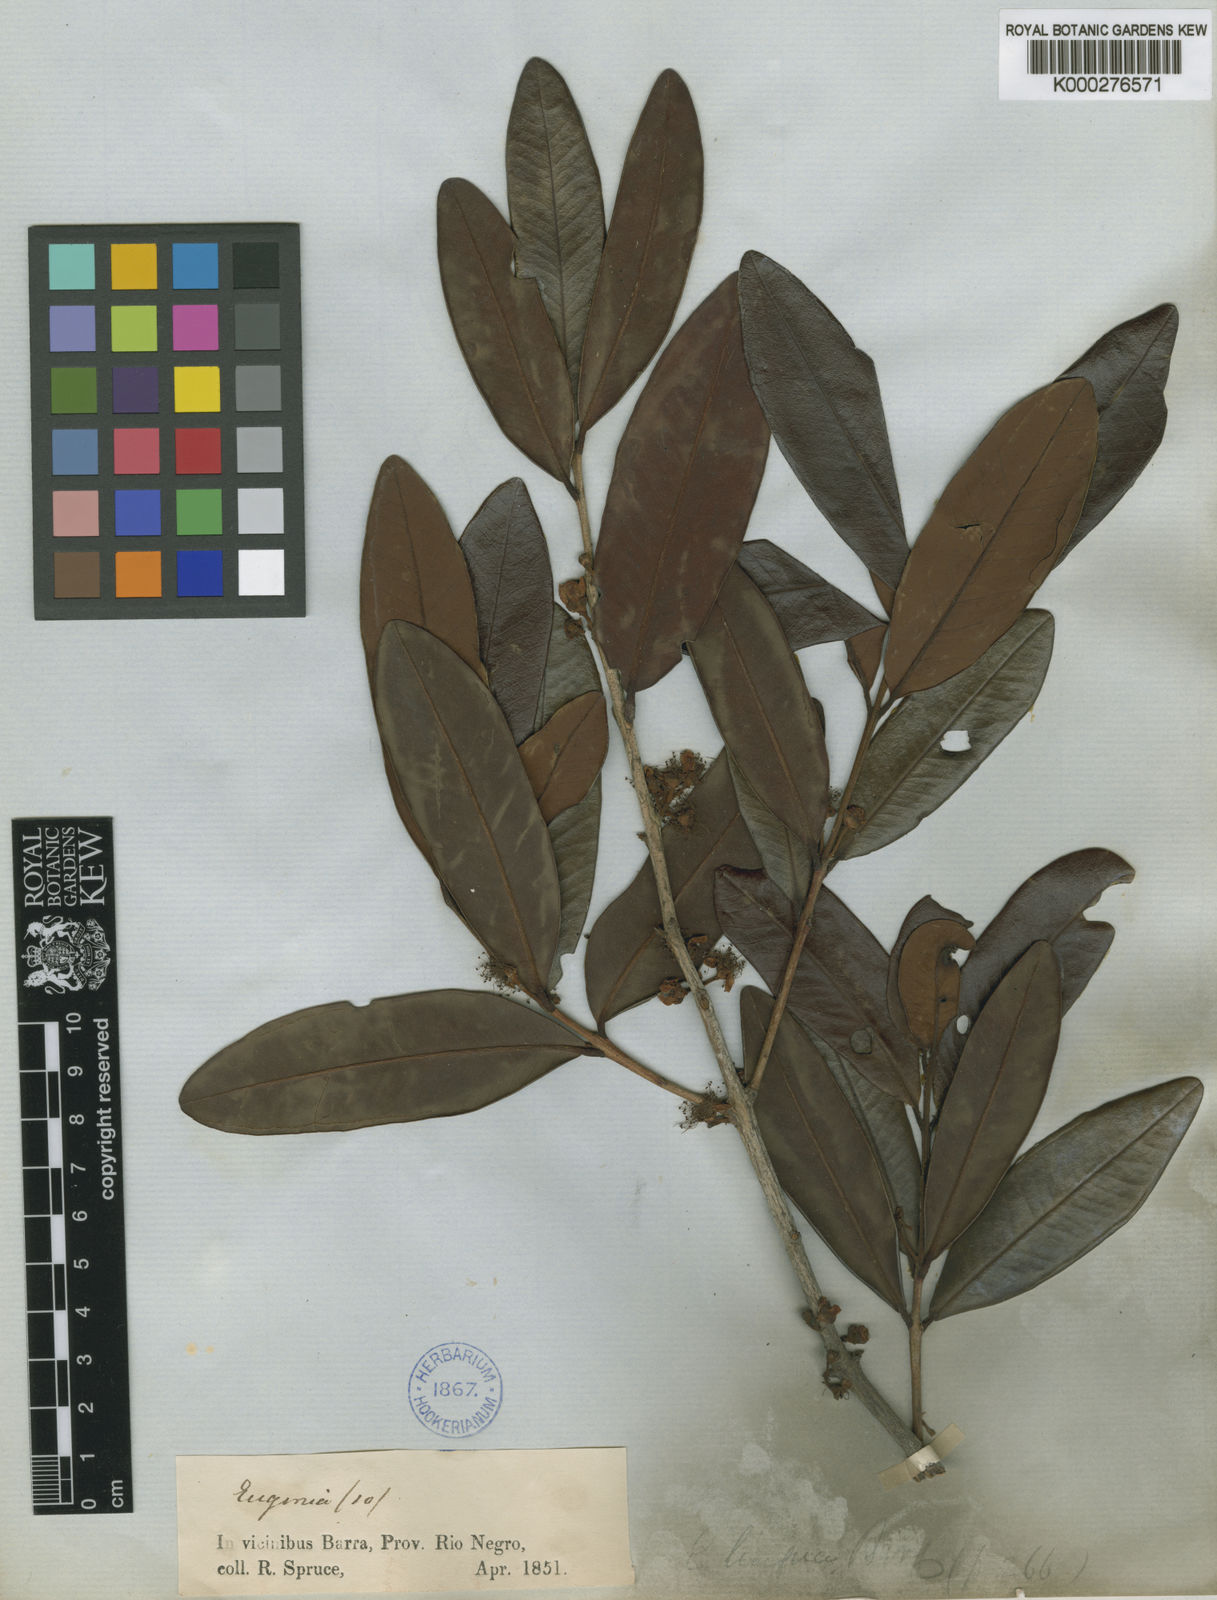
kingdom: Plantae
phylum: Tracheophyta
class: Magnoliopsida
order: Myrtales
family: Myrtaceae
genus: Eugenia
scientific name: Eugenia cachoeirensis
